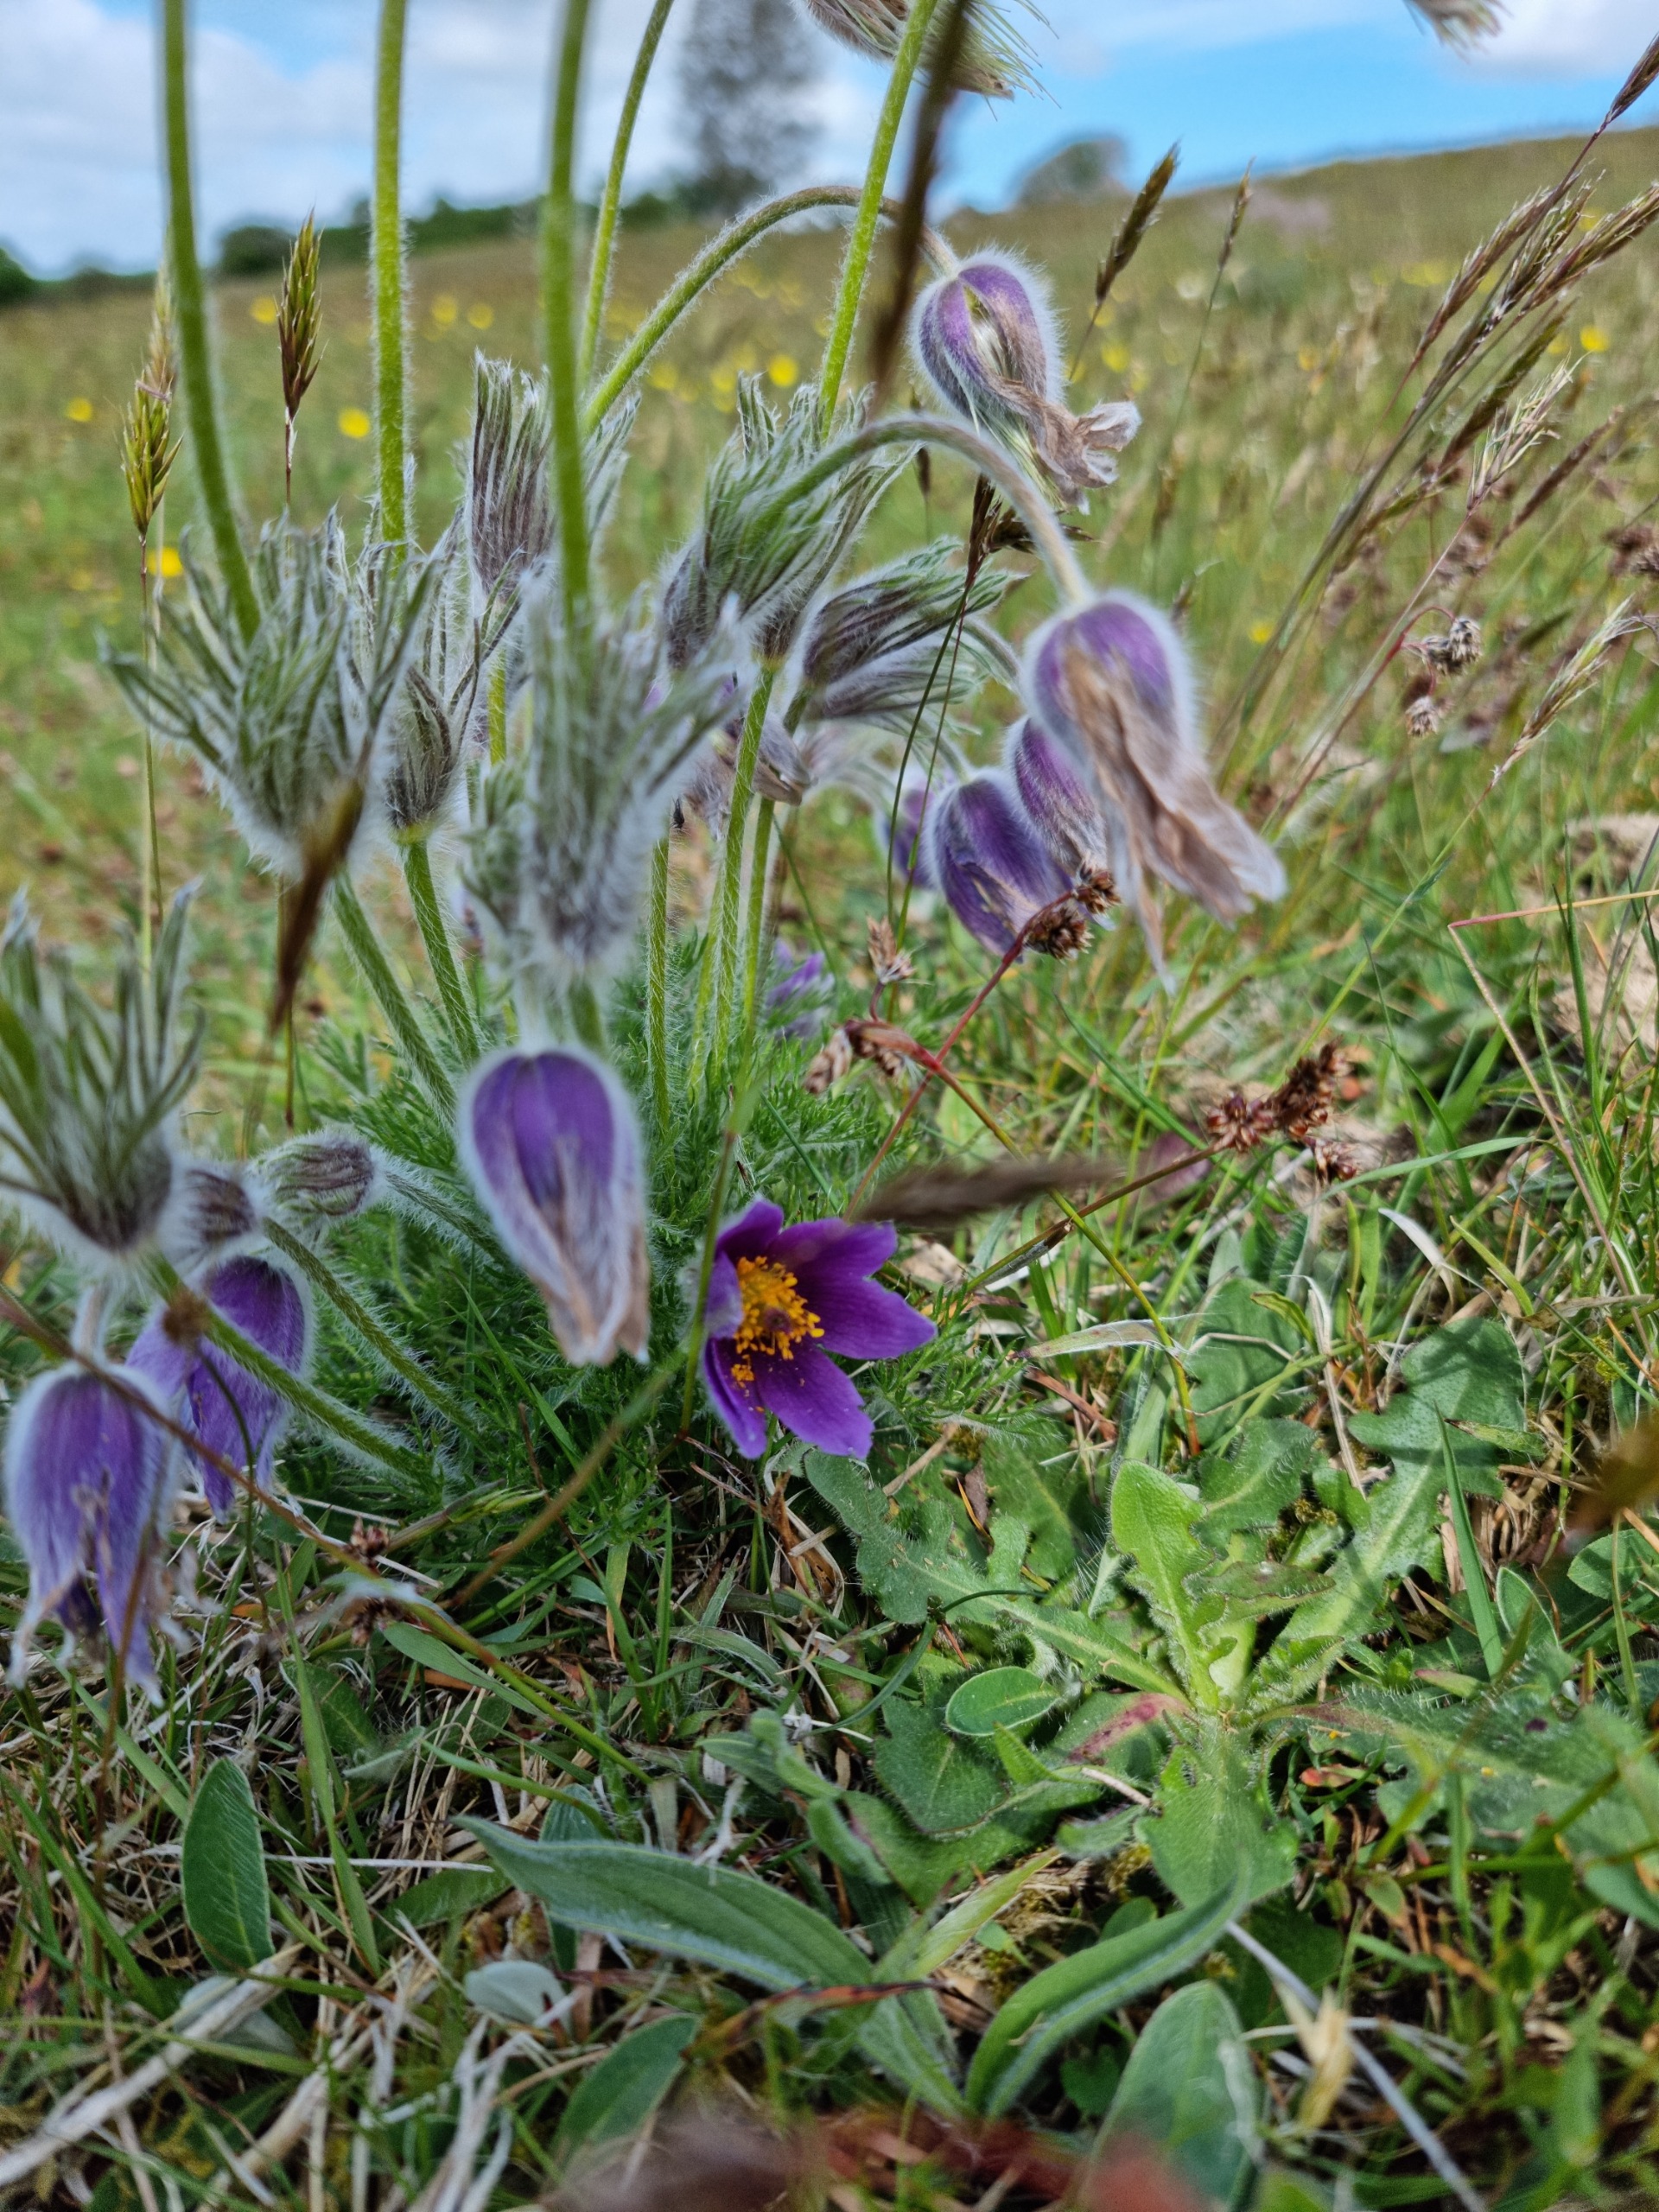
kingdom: Plantae
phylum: Tracheophyta
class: Magnoliopsida
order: Ranunculales
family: Ranunculaceae
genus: Pulsatilla
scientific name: Pulsatilla vulgaris
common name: Opret kobjælde
